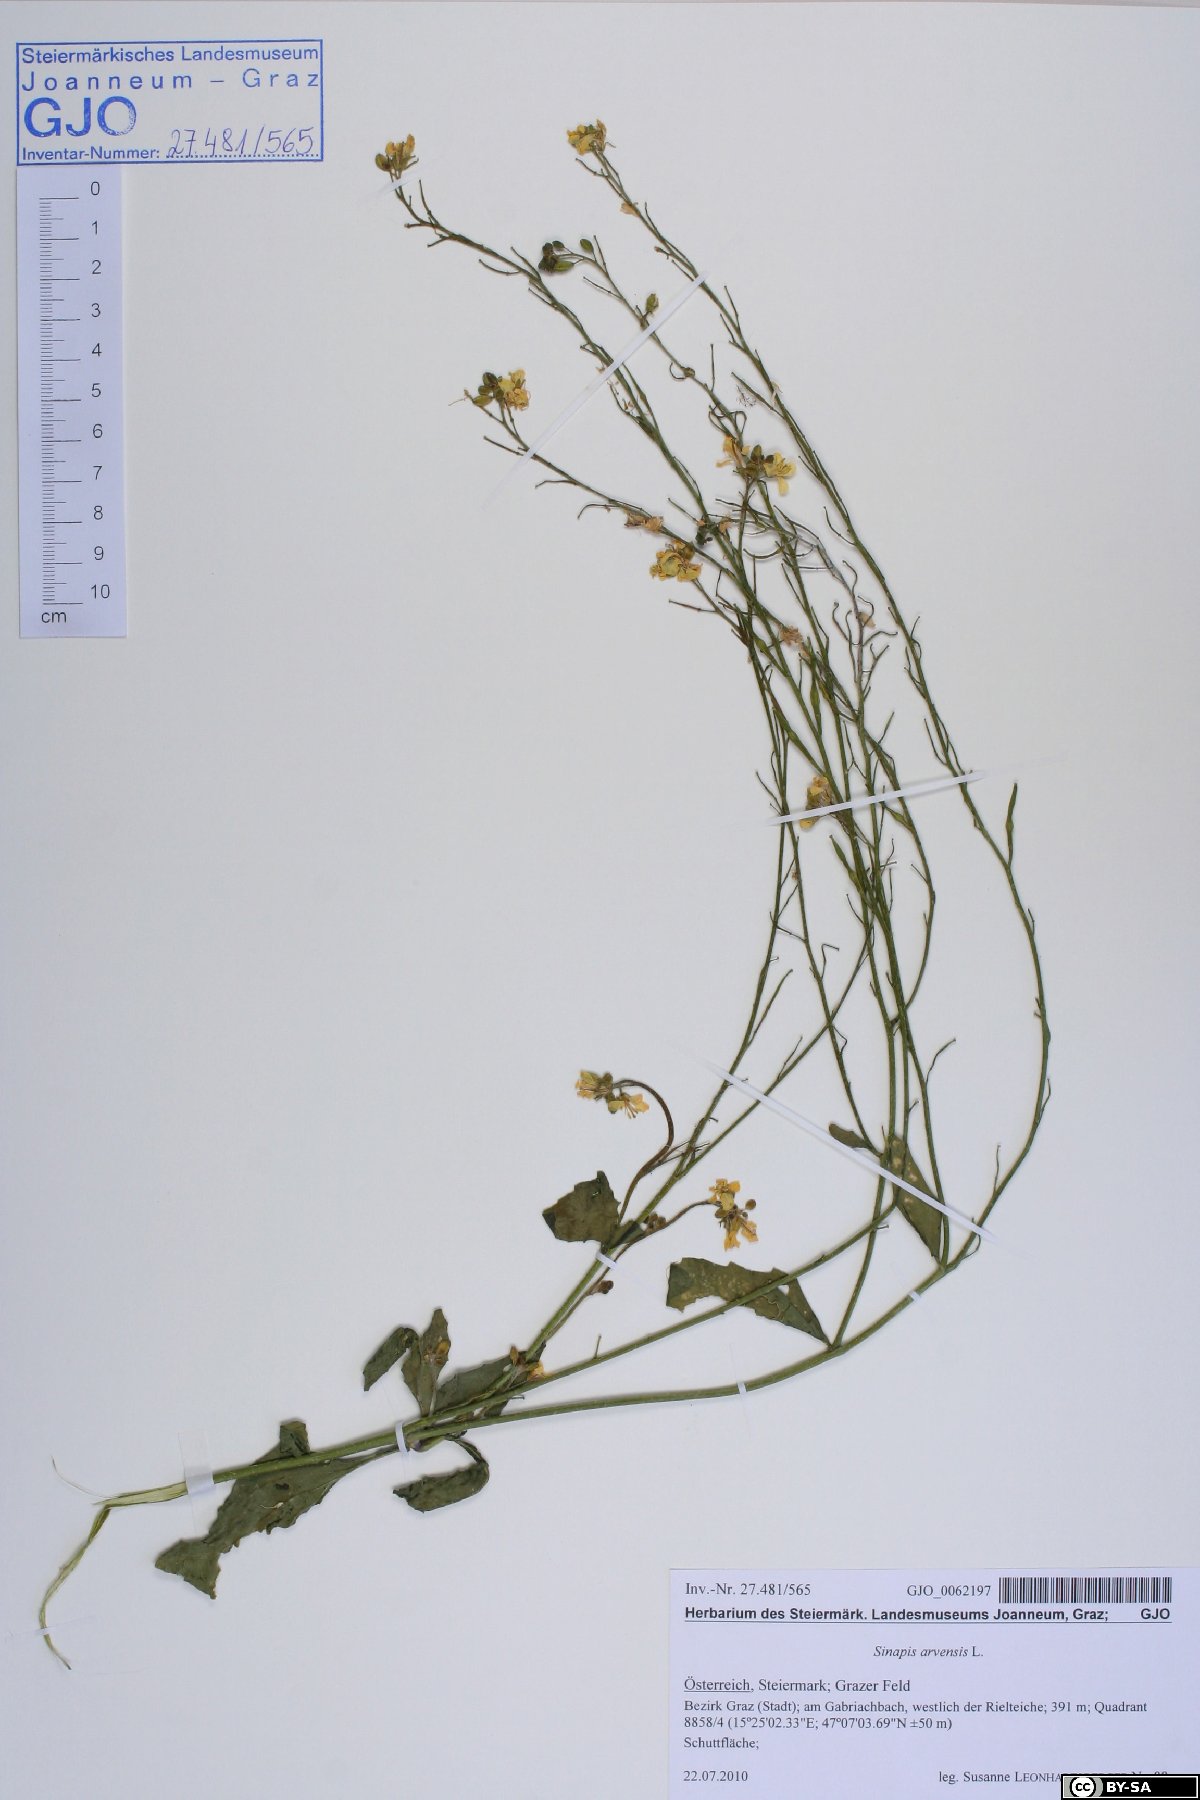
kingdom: Plantae
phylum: Tracheophyta
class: Magnoliopsida
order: Brassicales
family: Brassicaceae
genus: Sinapis
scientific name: Sinapis arvensis
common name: Charlock
